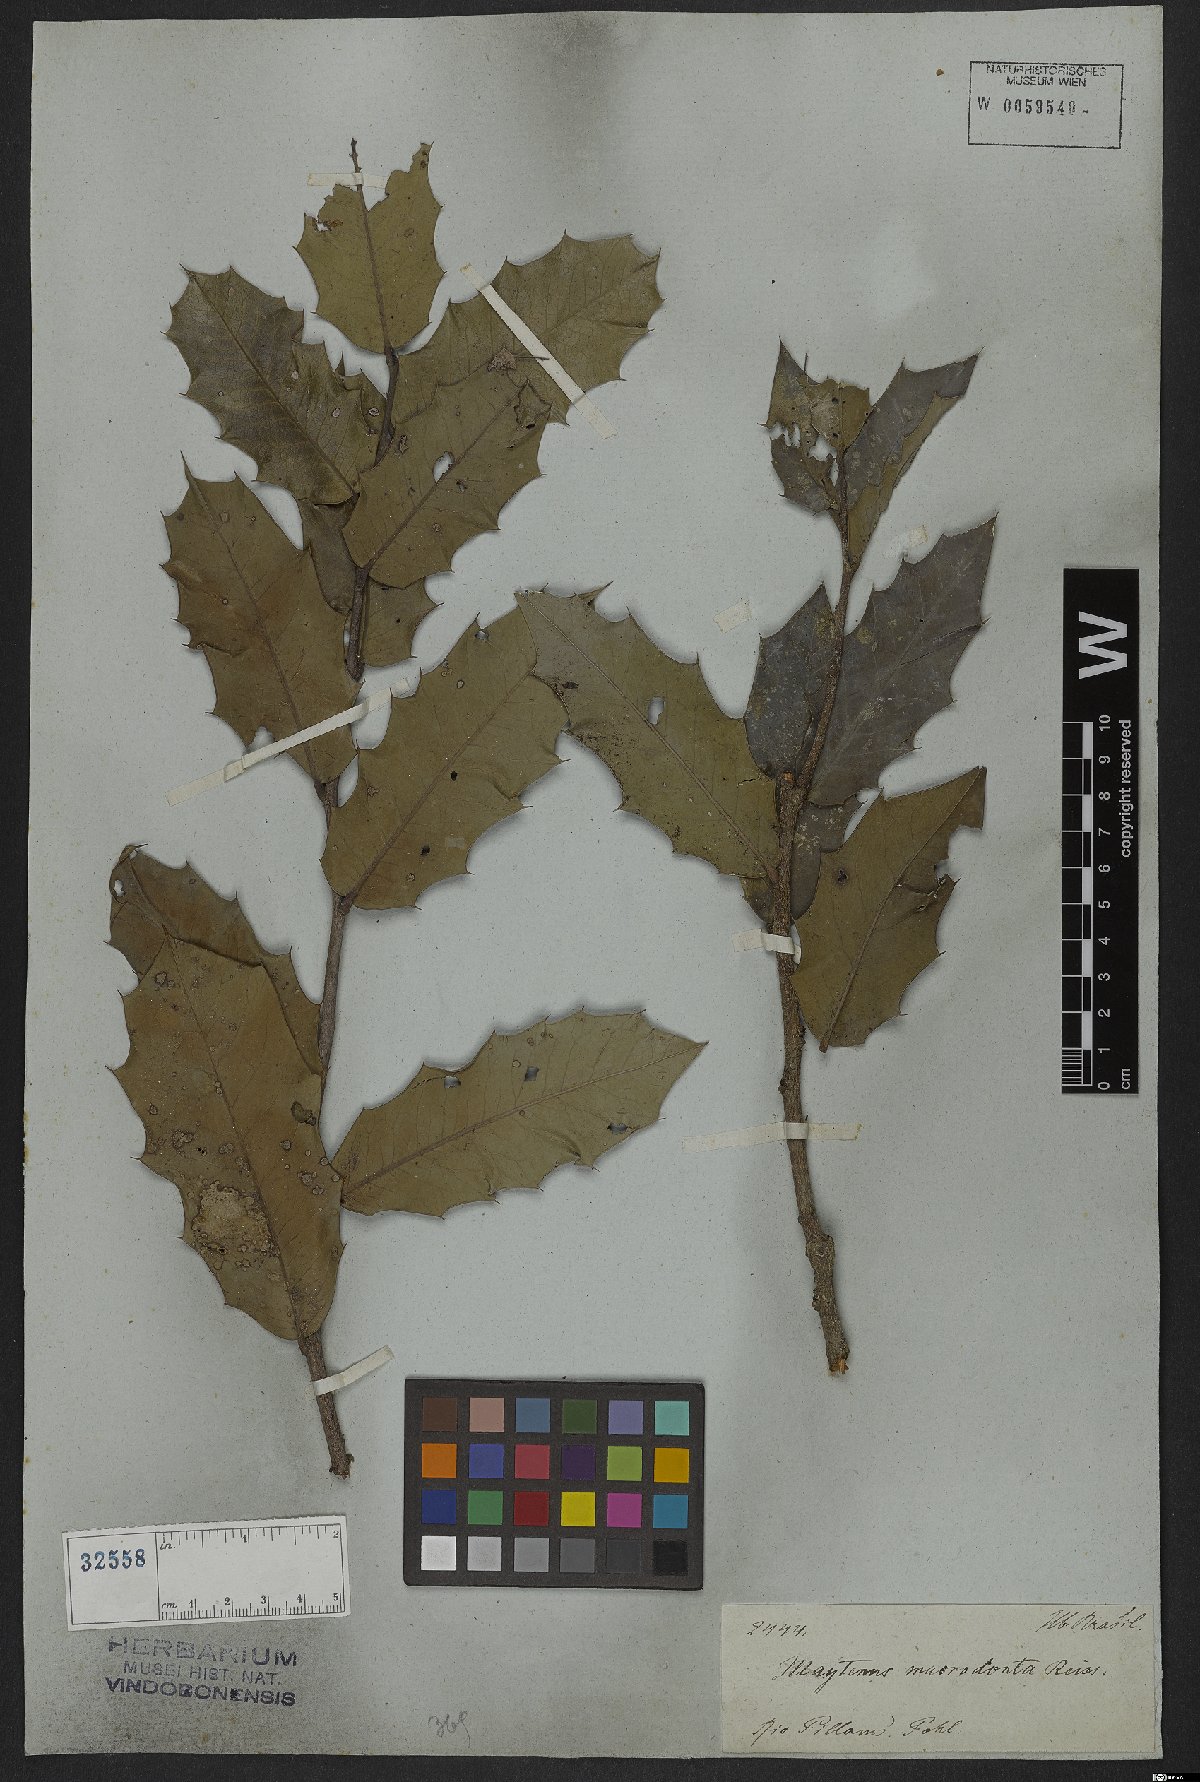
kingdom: Plantae
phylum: Tracheophyta
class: Magnoliopsida
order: Celastrales
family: Celastraceae
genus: Monteverdia
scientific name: Monteverdia ilicifolia
